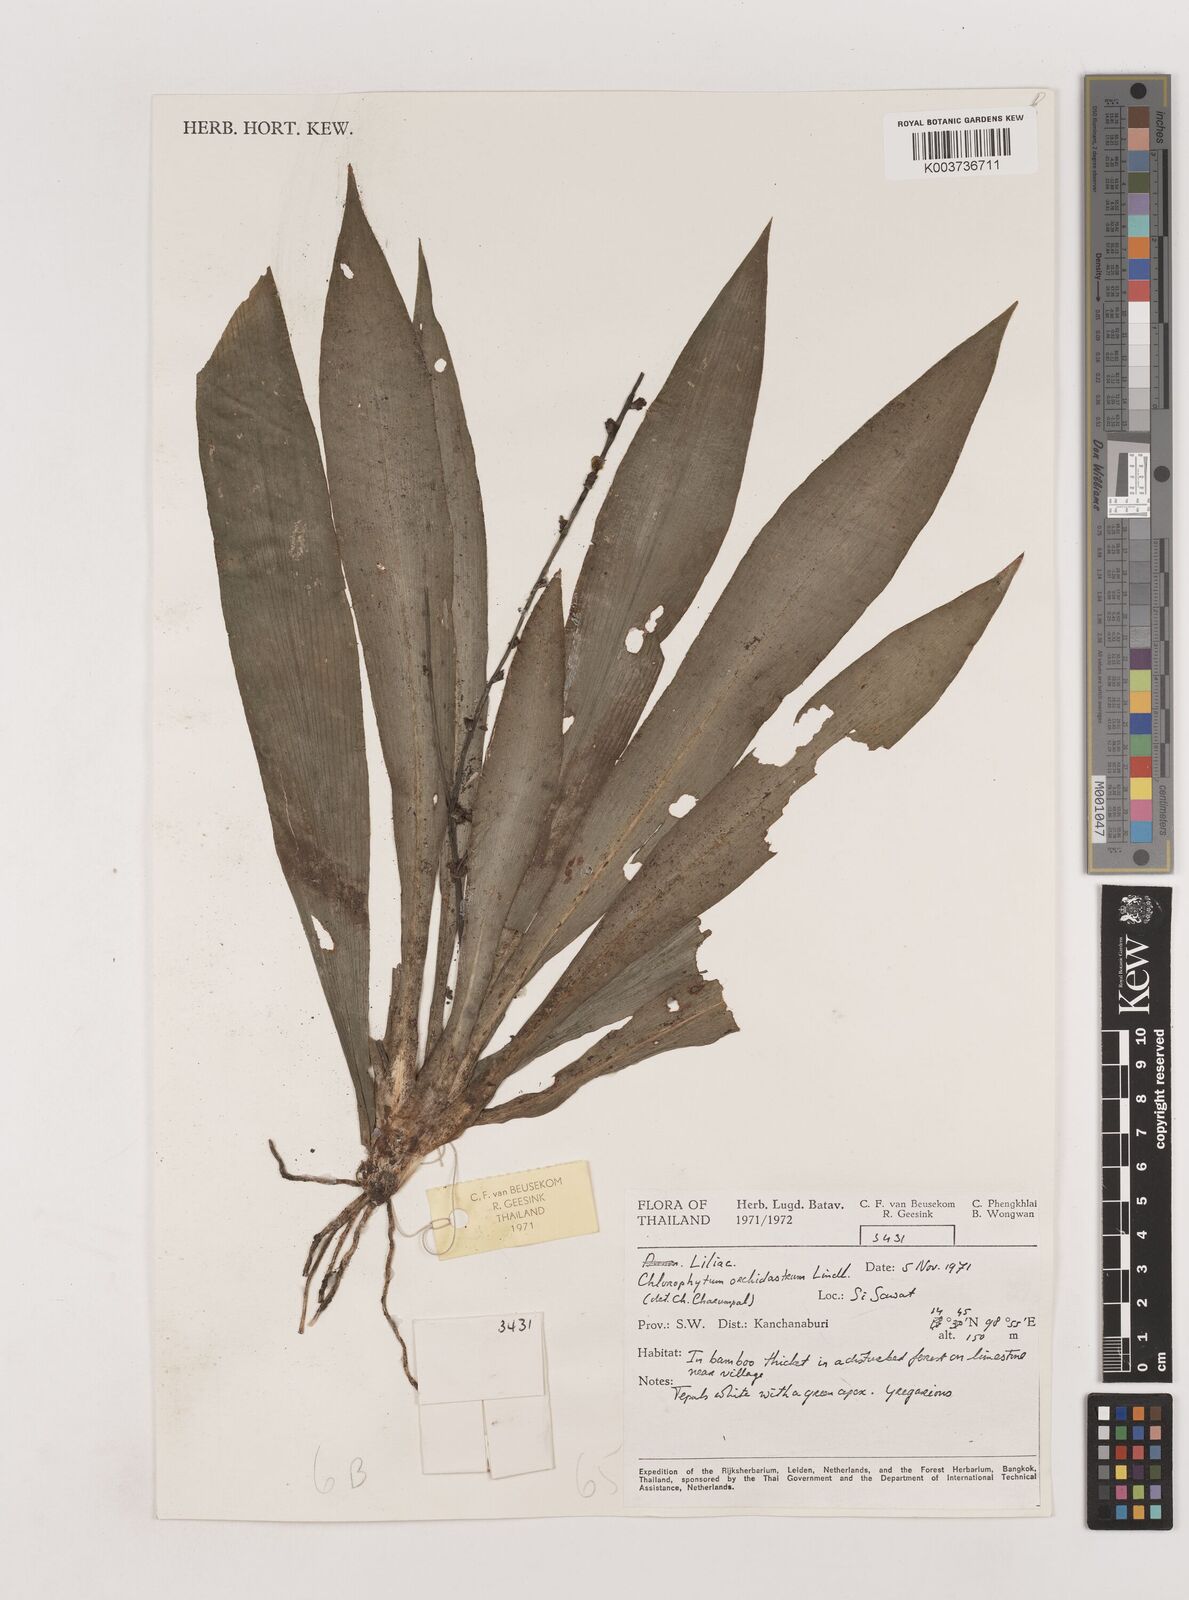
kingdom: Plantae
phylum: Tracheophyta
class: Liliopsida
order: Asparagales
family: Asparagaceae
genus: Chlorophytum
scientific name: Chlorophytum orchidastrum
